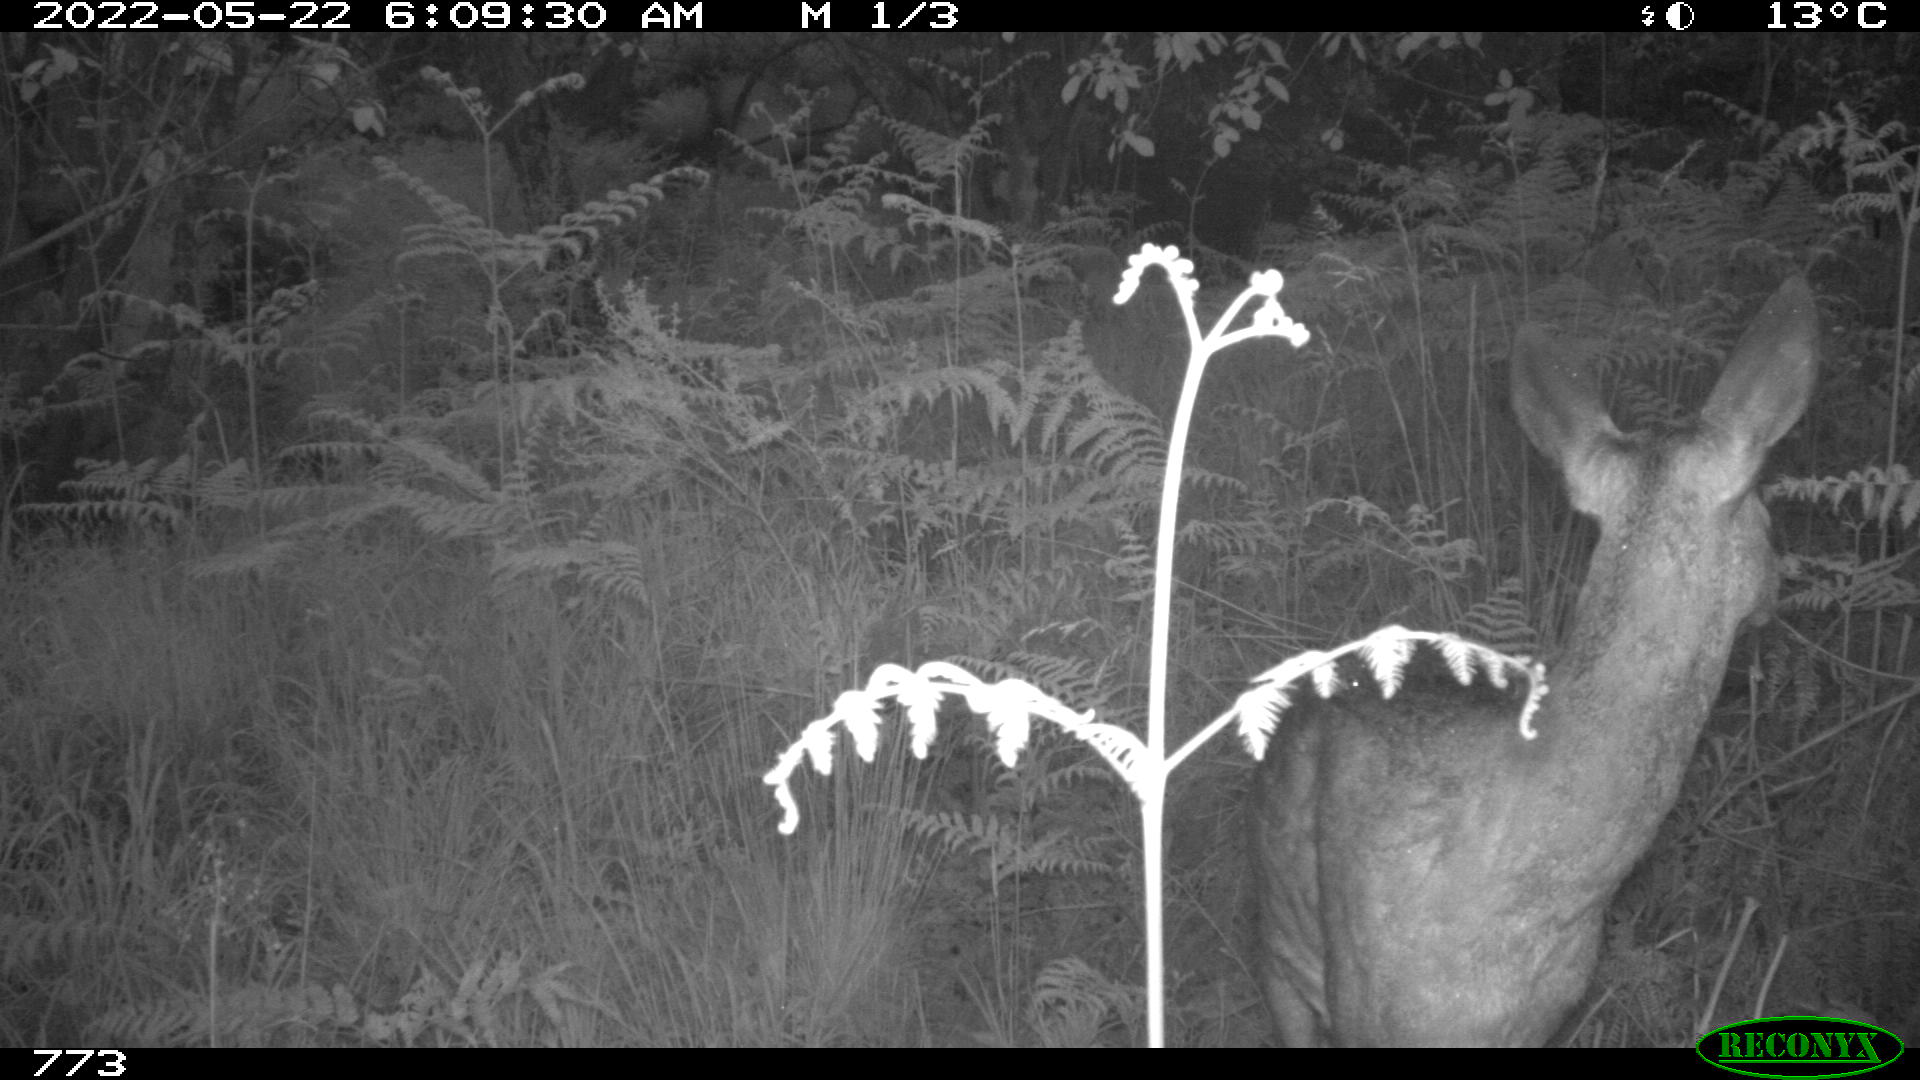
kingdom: Animalia
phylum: Chordata
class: Mammalia
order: Artiodactyla
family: Cervidae
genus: Capreolus
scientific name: Capreolus capreolus
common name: Western roe deer
